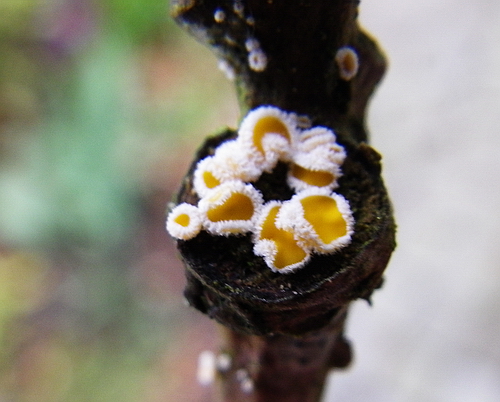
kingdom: Fungi
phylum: Ascomycota
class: Leotiomycetes
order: Helotiales
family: Lachnaceae
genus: Capitotricha
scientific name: Capitotricha bicolor
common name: prægtig frynseskive
